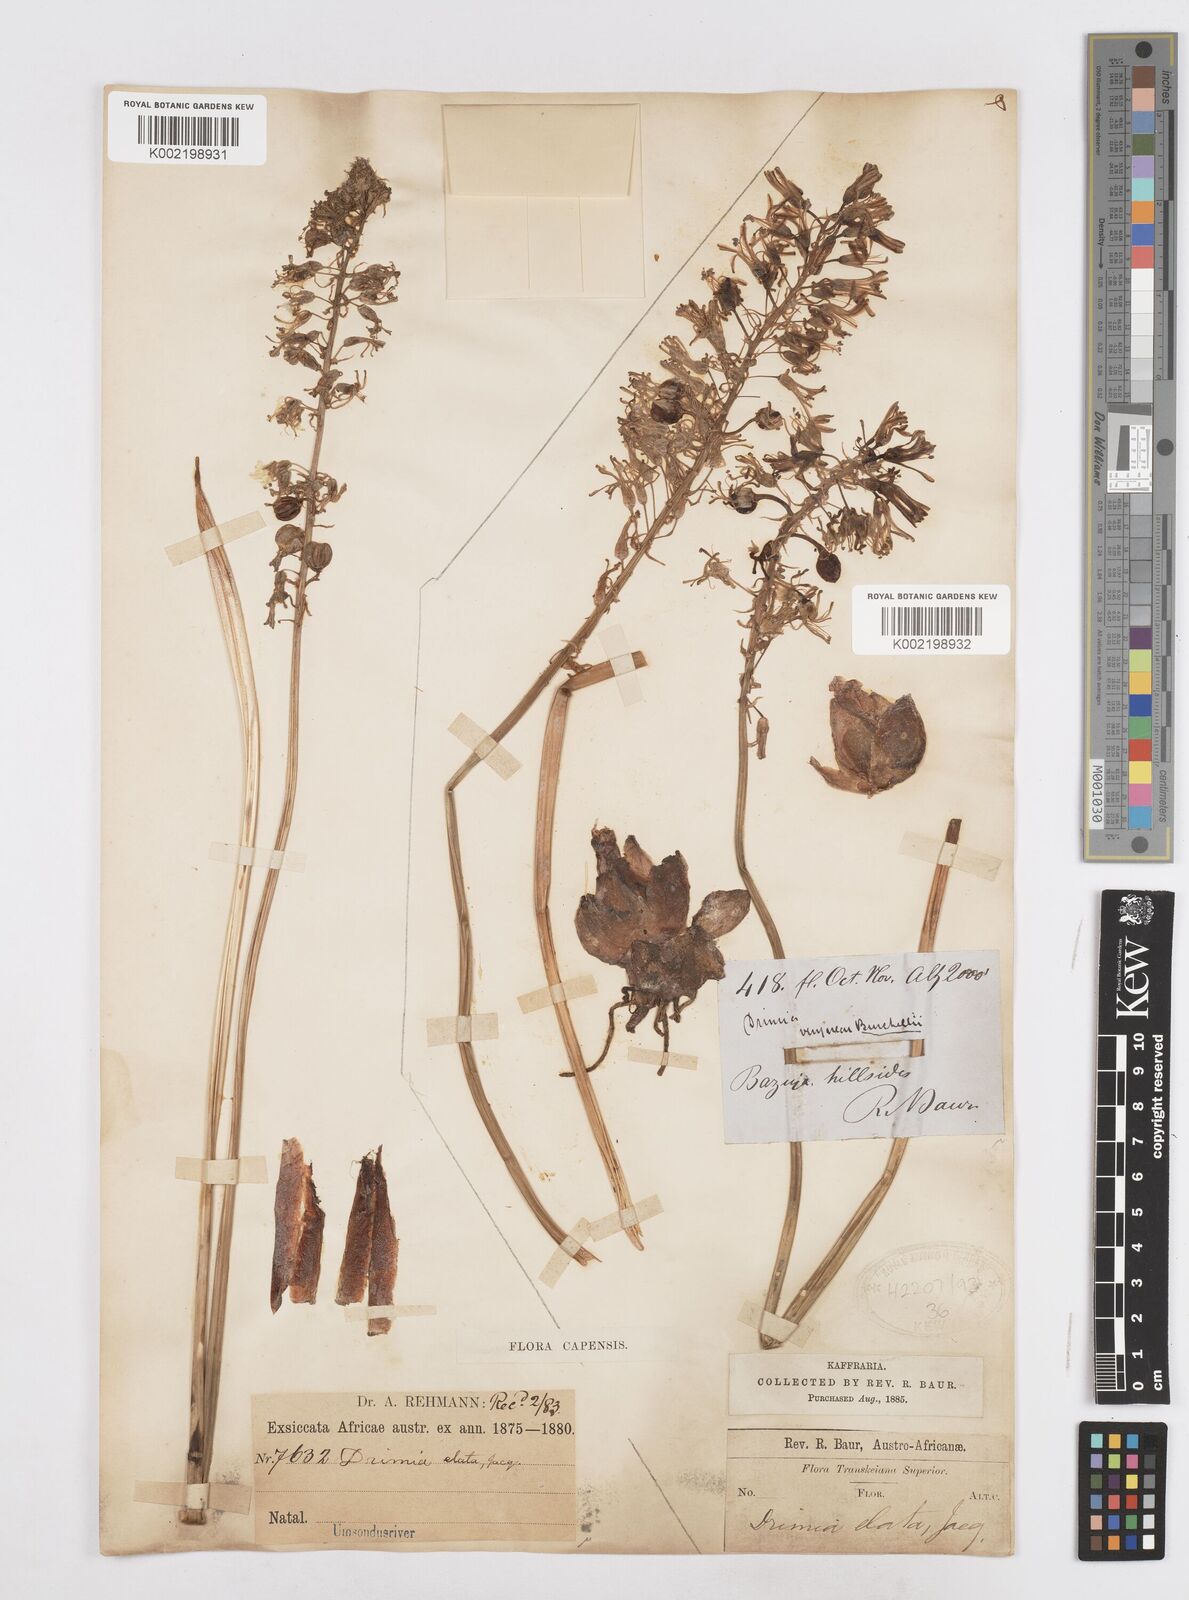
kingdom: Plantae
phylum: Tracheophyta
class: Liliopsida
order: Asparagales
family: Asparagaceae
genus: Drimia
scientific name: Drimia elata
